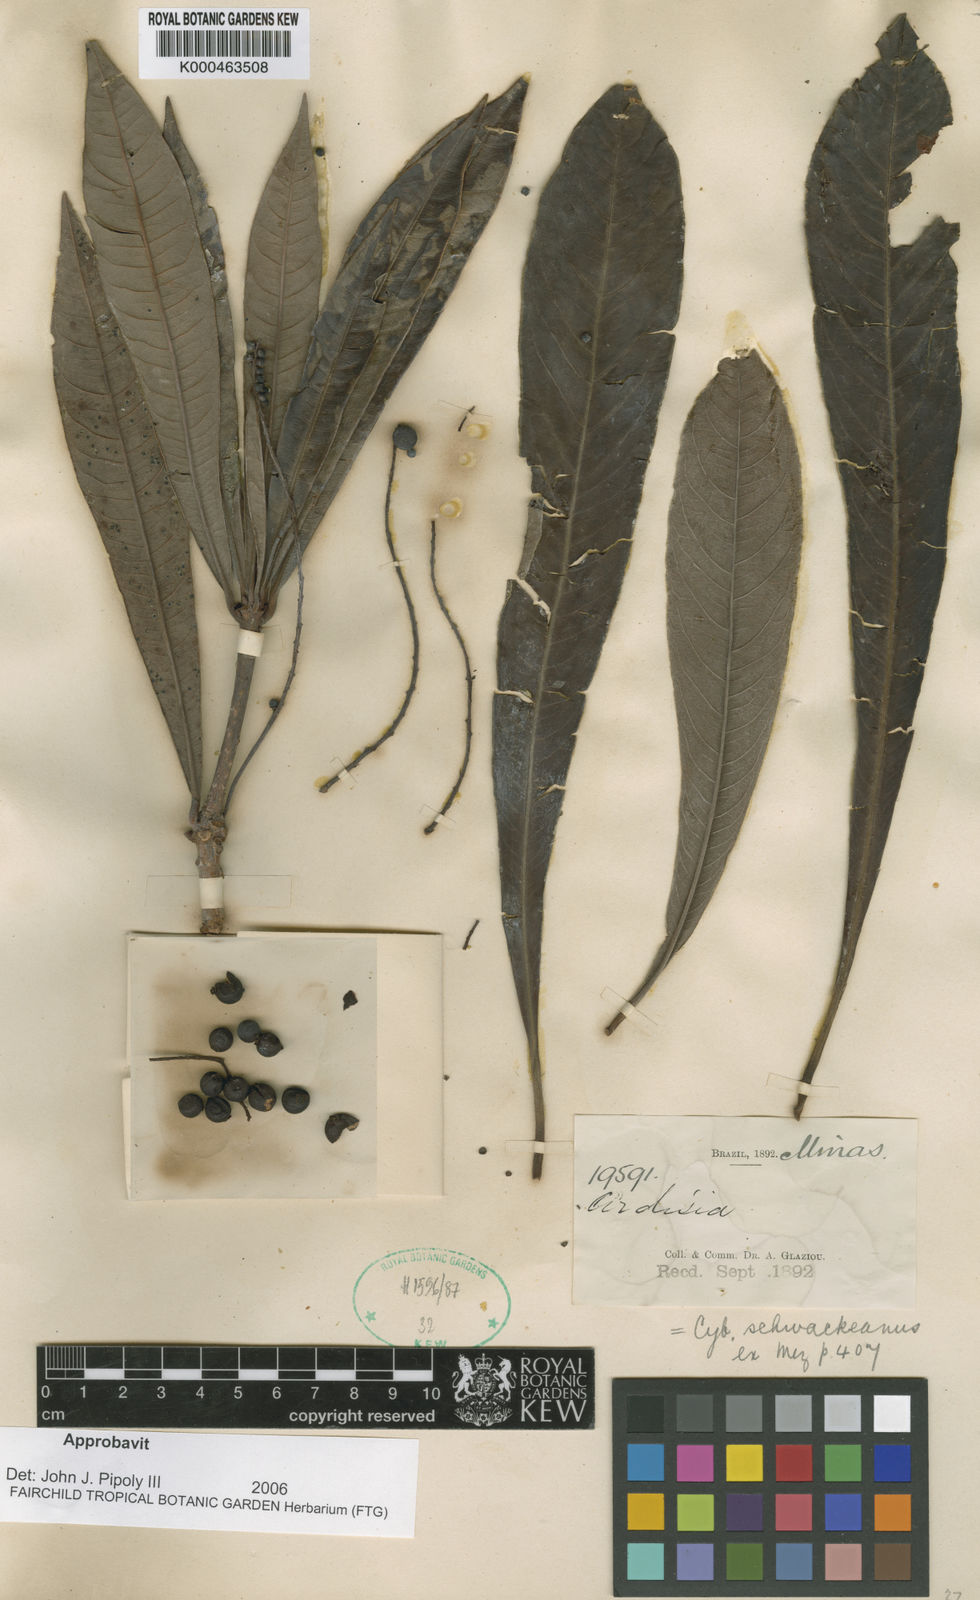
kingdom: Plantae
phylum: Tracheophyta
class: Magnoliopsida
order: Ericales
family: Primulaceae
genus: Cybianthus
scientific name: Cybianthus schwackeanus
